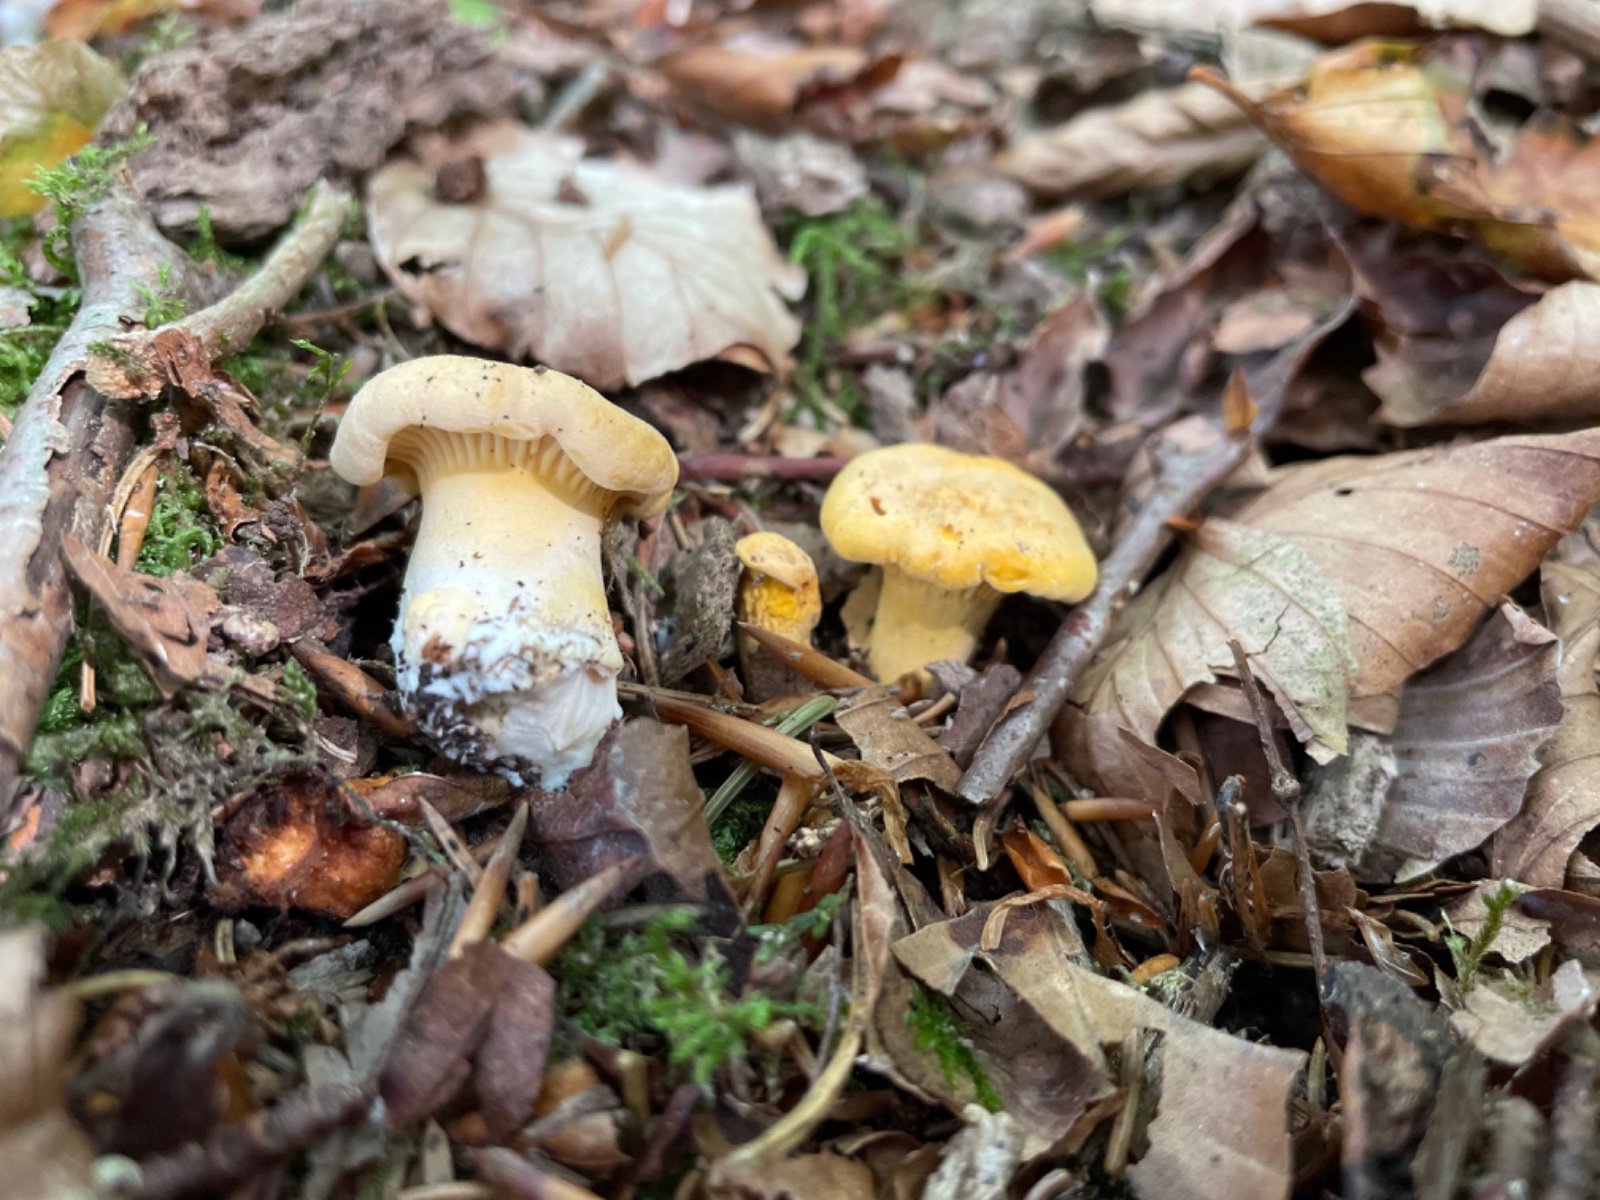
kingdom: Fungi
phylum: Basidiomycota
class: Agaricomycetes
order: Cantharellales
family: Hydnaceae
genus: Cantharellus
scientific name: Cantharellus pallens
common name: bleg kantarel
